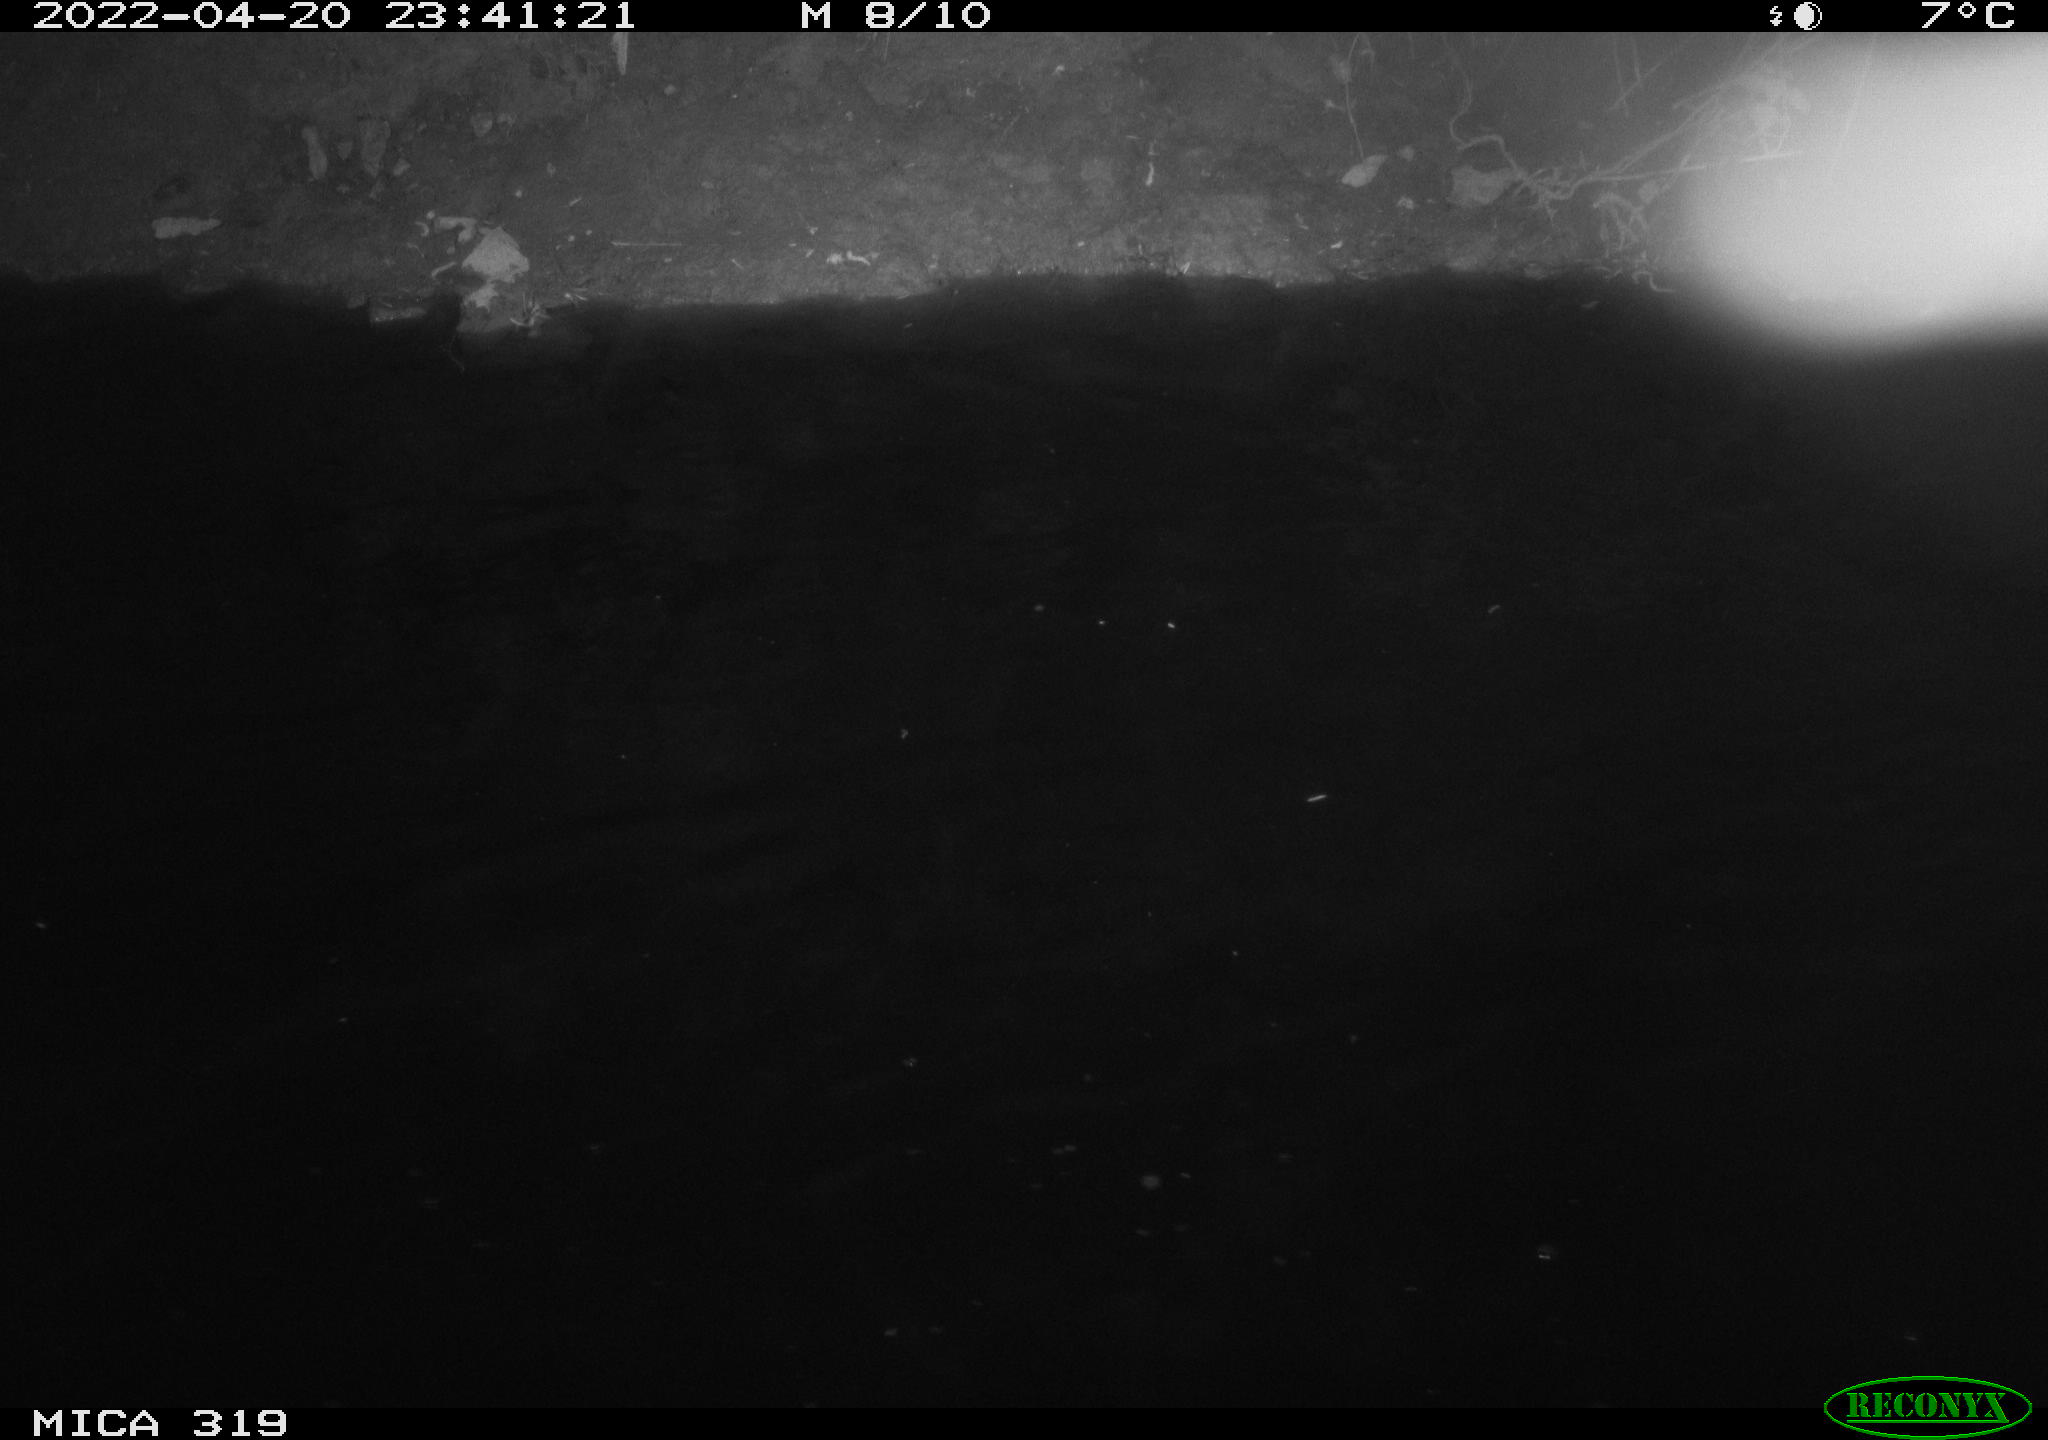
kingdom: Animalia
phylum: Chordata
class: Aves
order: Anseriformes
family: Anatidae
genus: Anas
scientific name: Anas platyrhynchos
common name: Mallard
